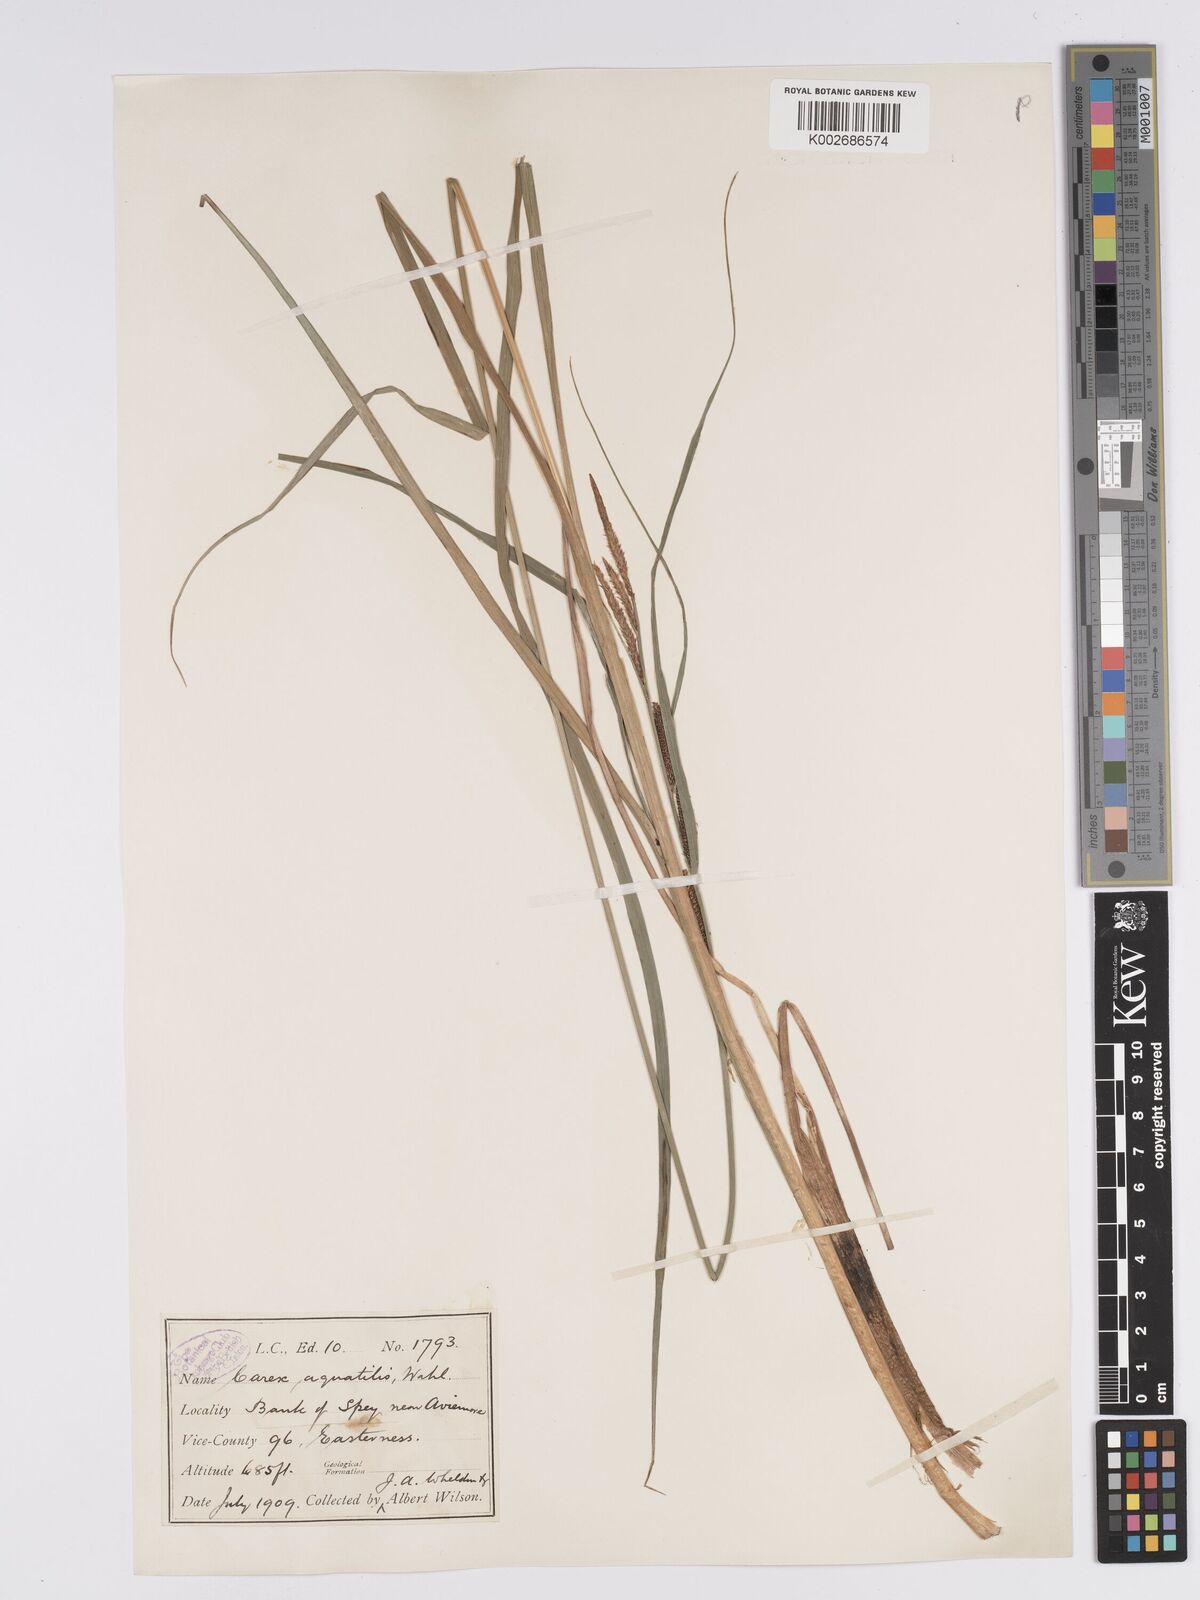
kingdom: Plantae
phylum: Tracheophyta
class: Liliopsida
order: Poales
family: Cyperaceae
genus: Carex
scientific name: Carex aquatilis
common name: Water sedge
